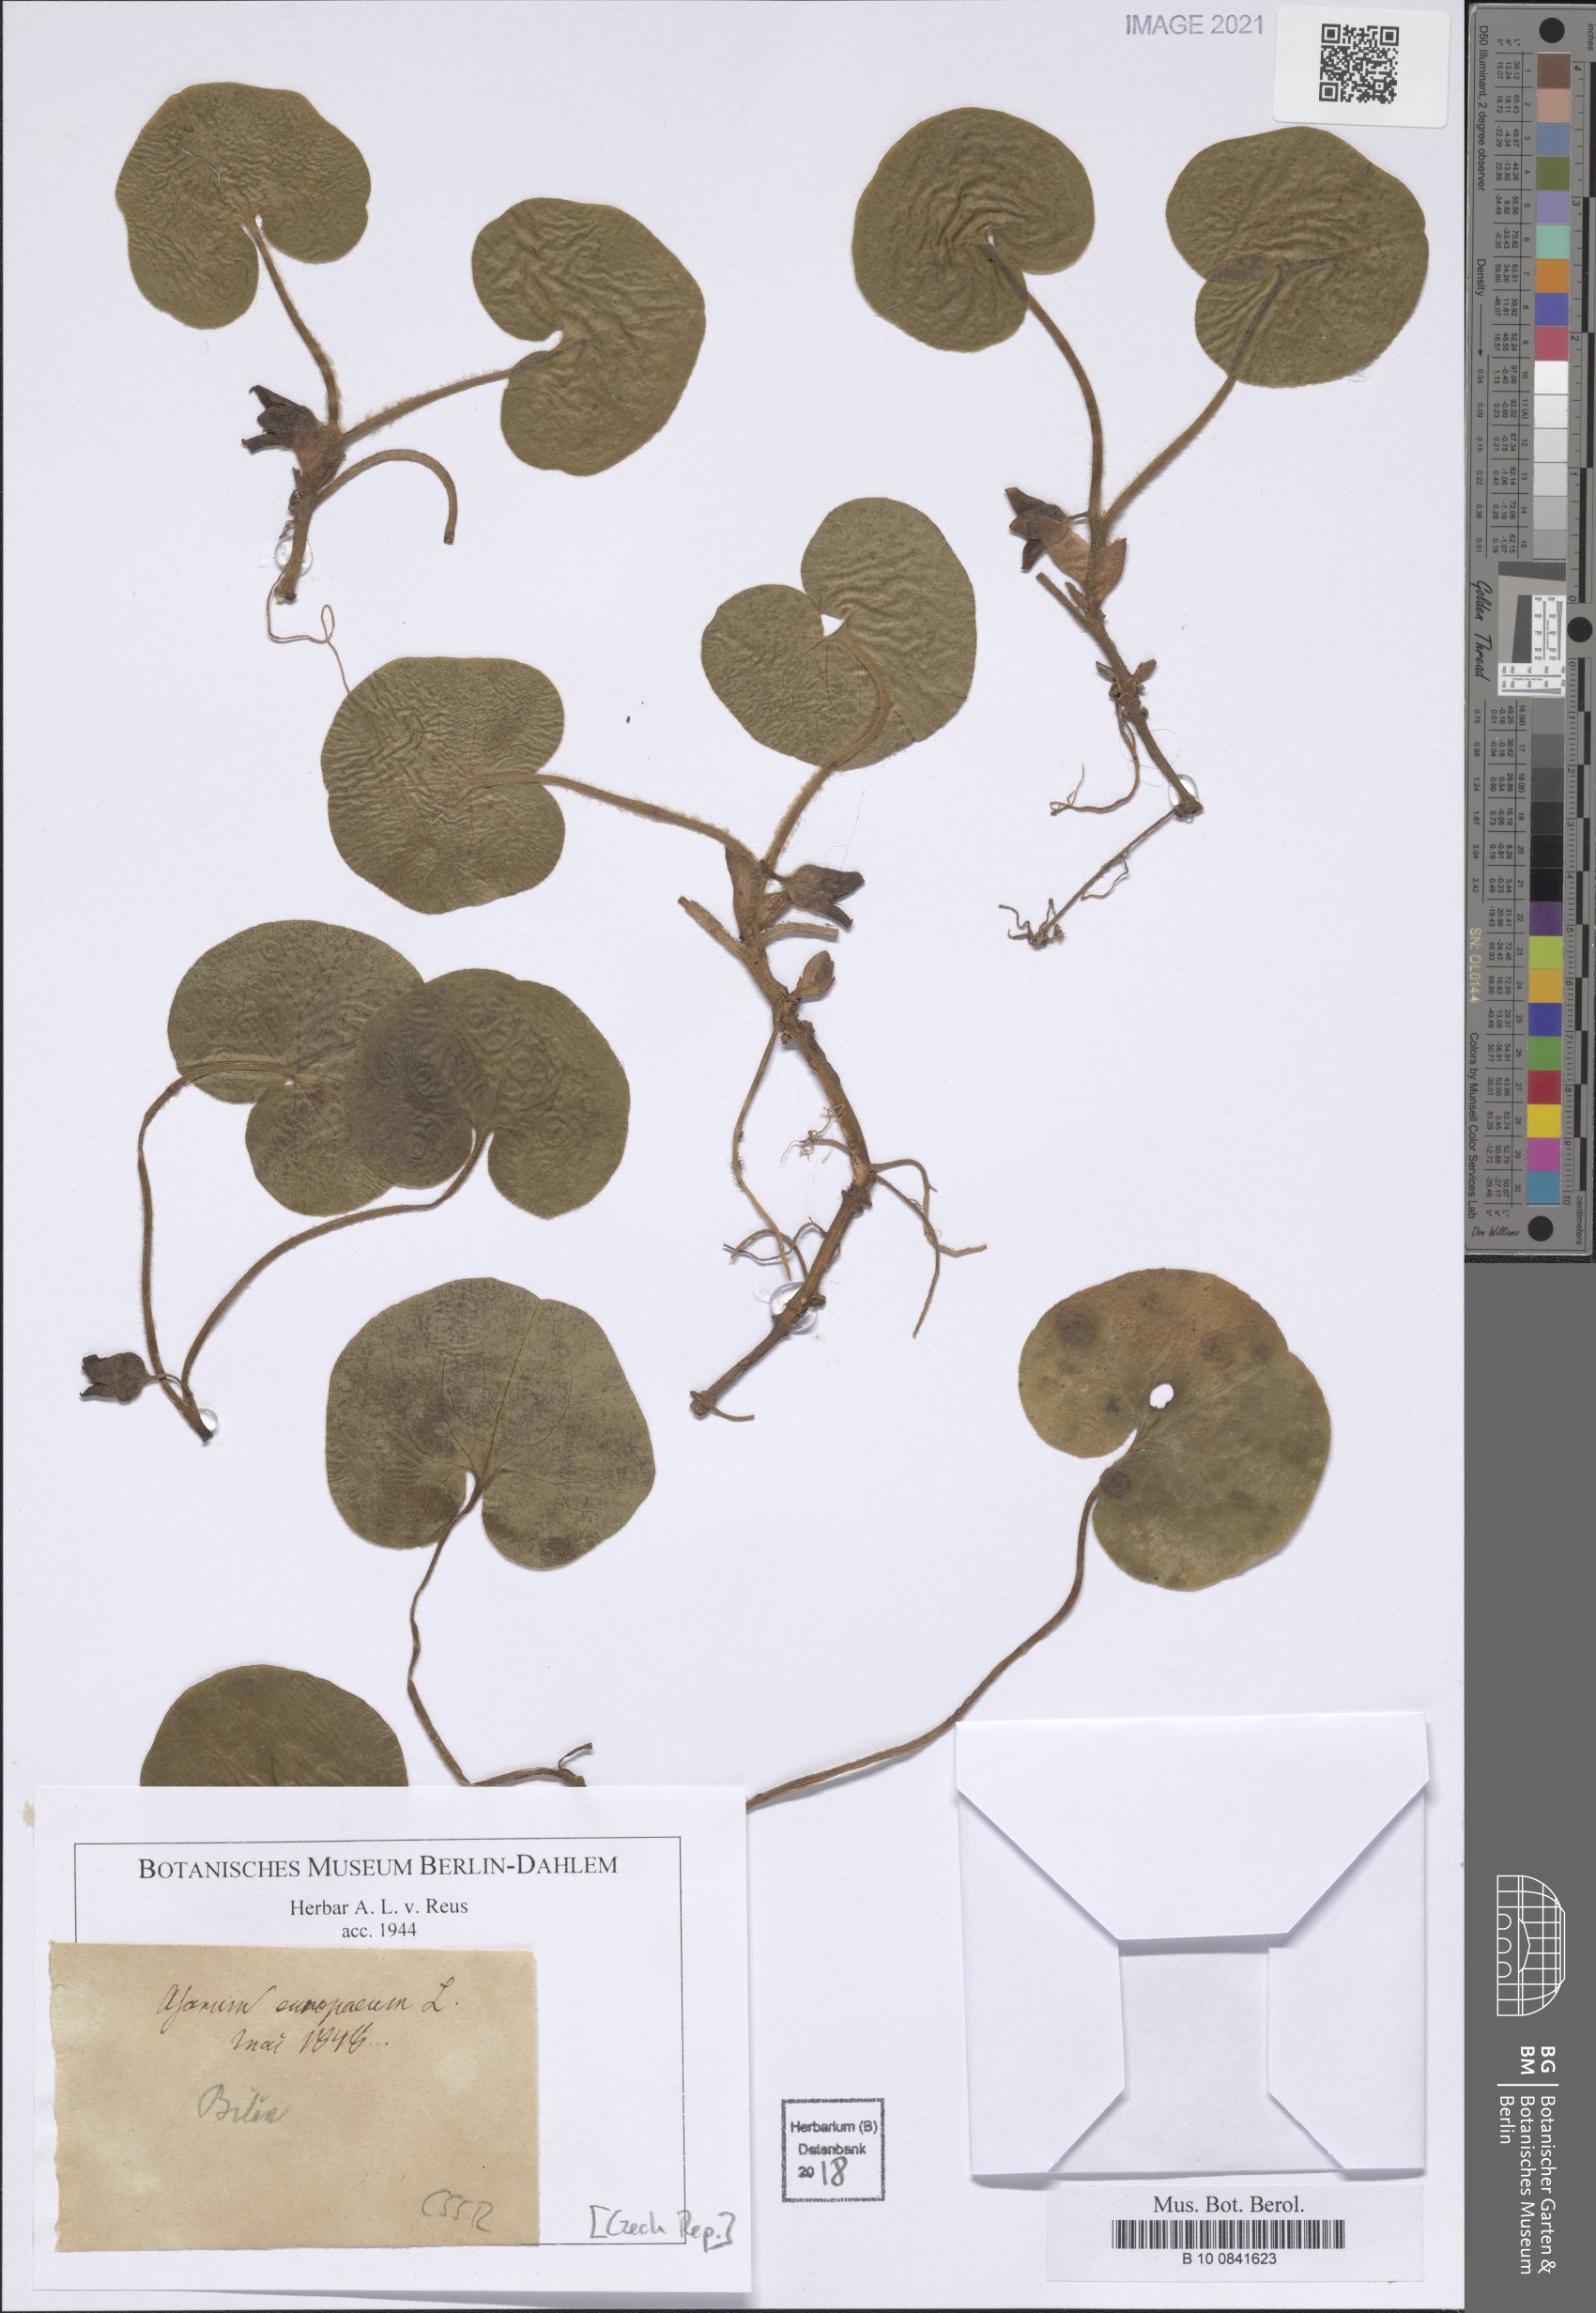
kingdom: Plantae
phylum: Tracheophyta
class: Magnoliopsida
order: Piperales
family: Aristolochiaceae
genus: Asarum
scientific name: Asarum europaeum
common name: Asarabacca
